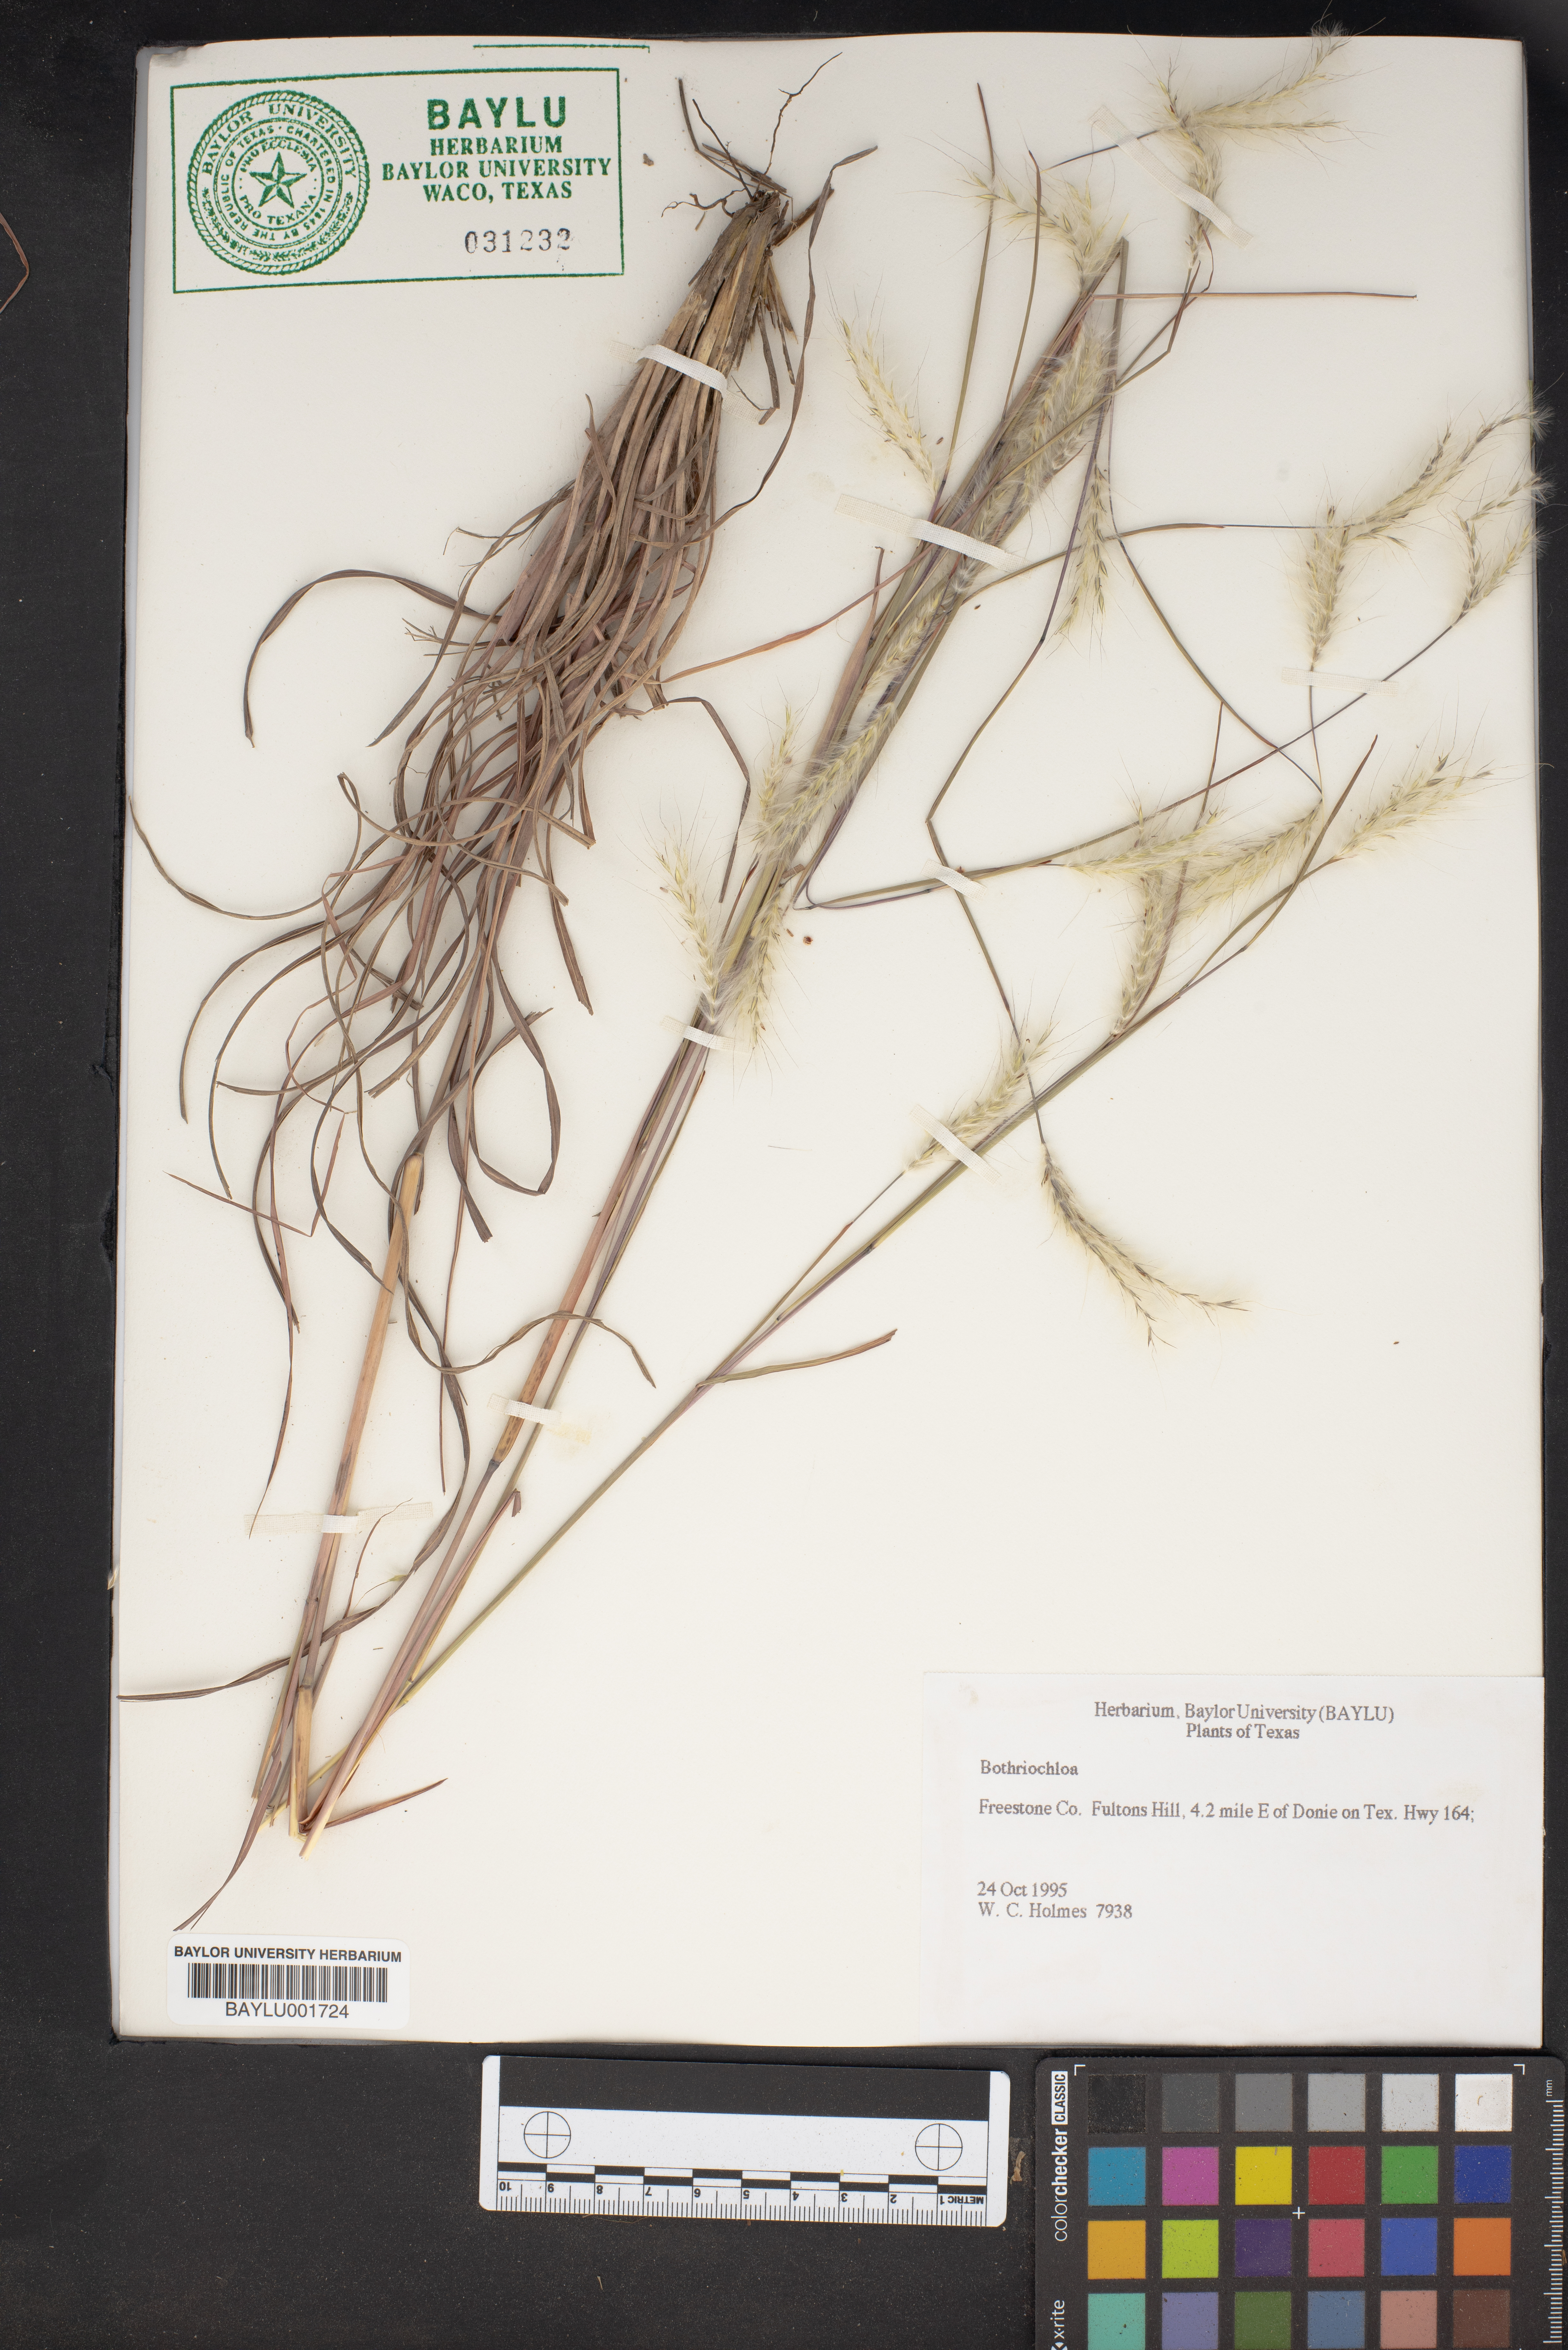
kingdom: Plantae
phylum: Tracheophyta
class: Liliopsida
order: Poales
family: Poaceae
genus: Bothriochloa
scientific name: Bothriochloa
